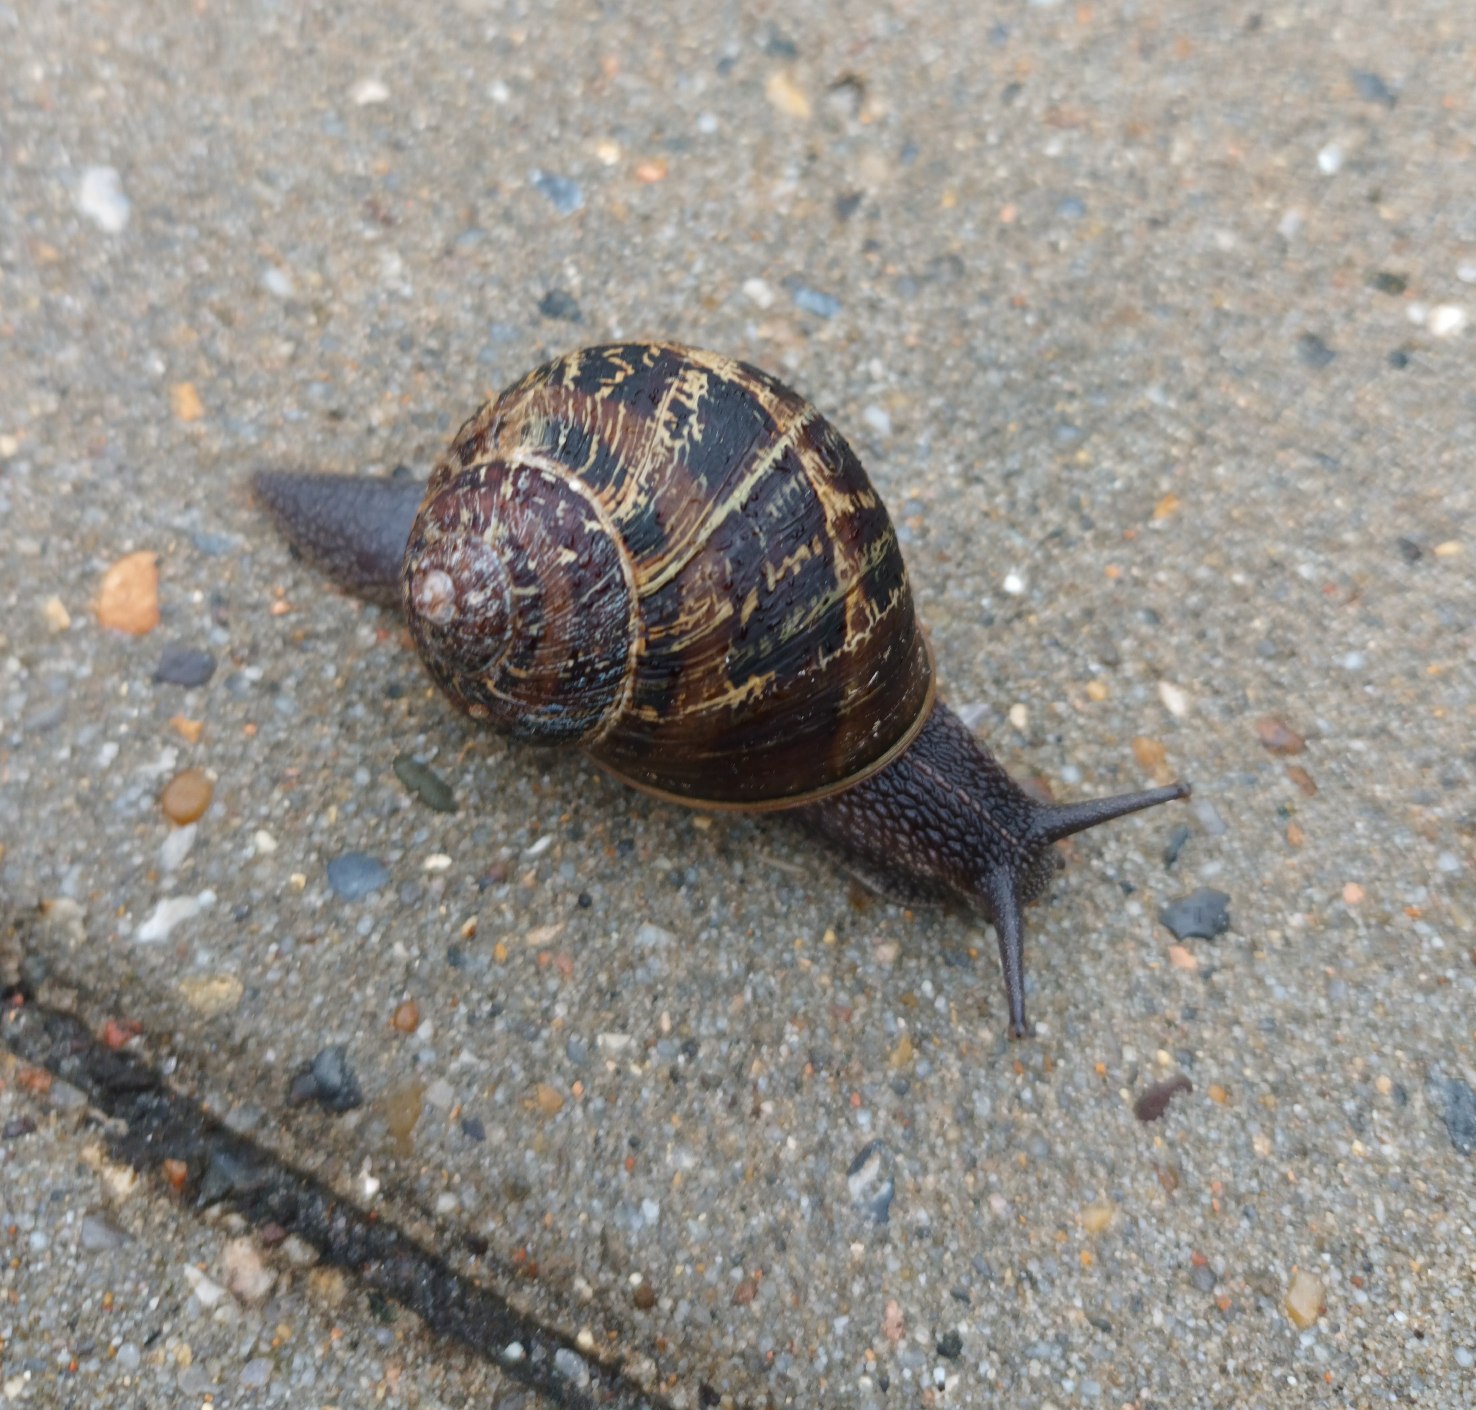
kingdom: Animalia
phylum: Mollusca
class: Gastropoda
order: Stylommatophora
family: Helicidae
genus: Cornu
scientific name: Cornu aspersum
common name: Plettet voldsnegl
